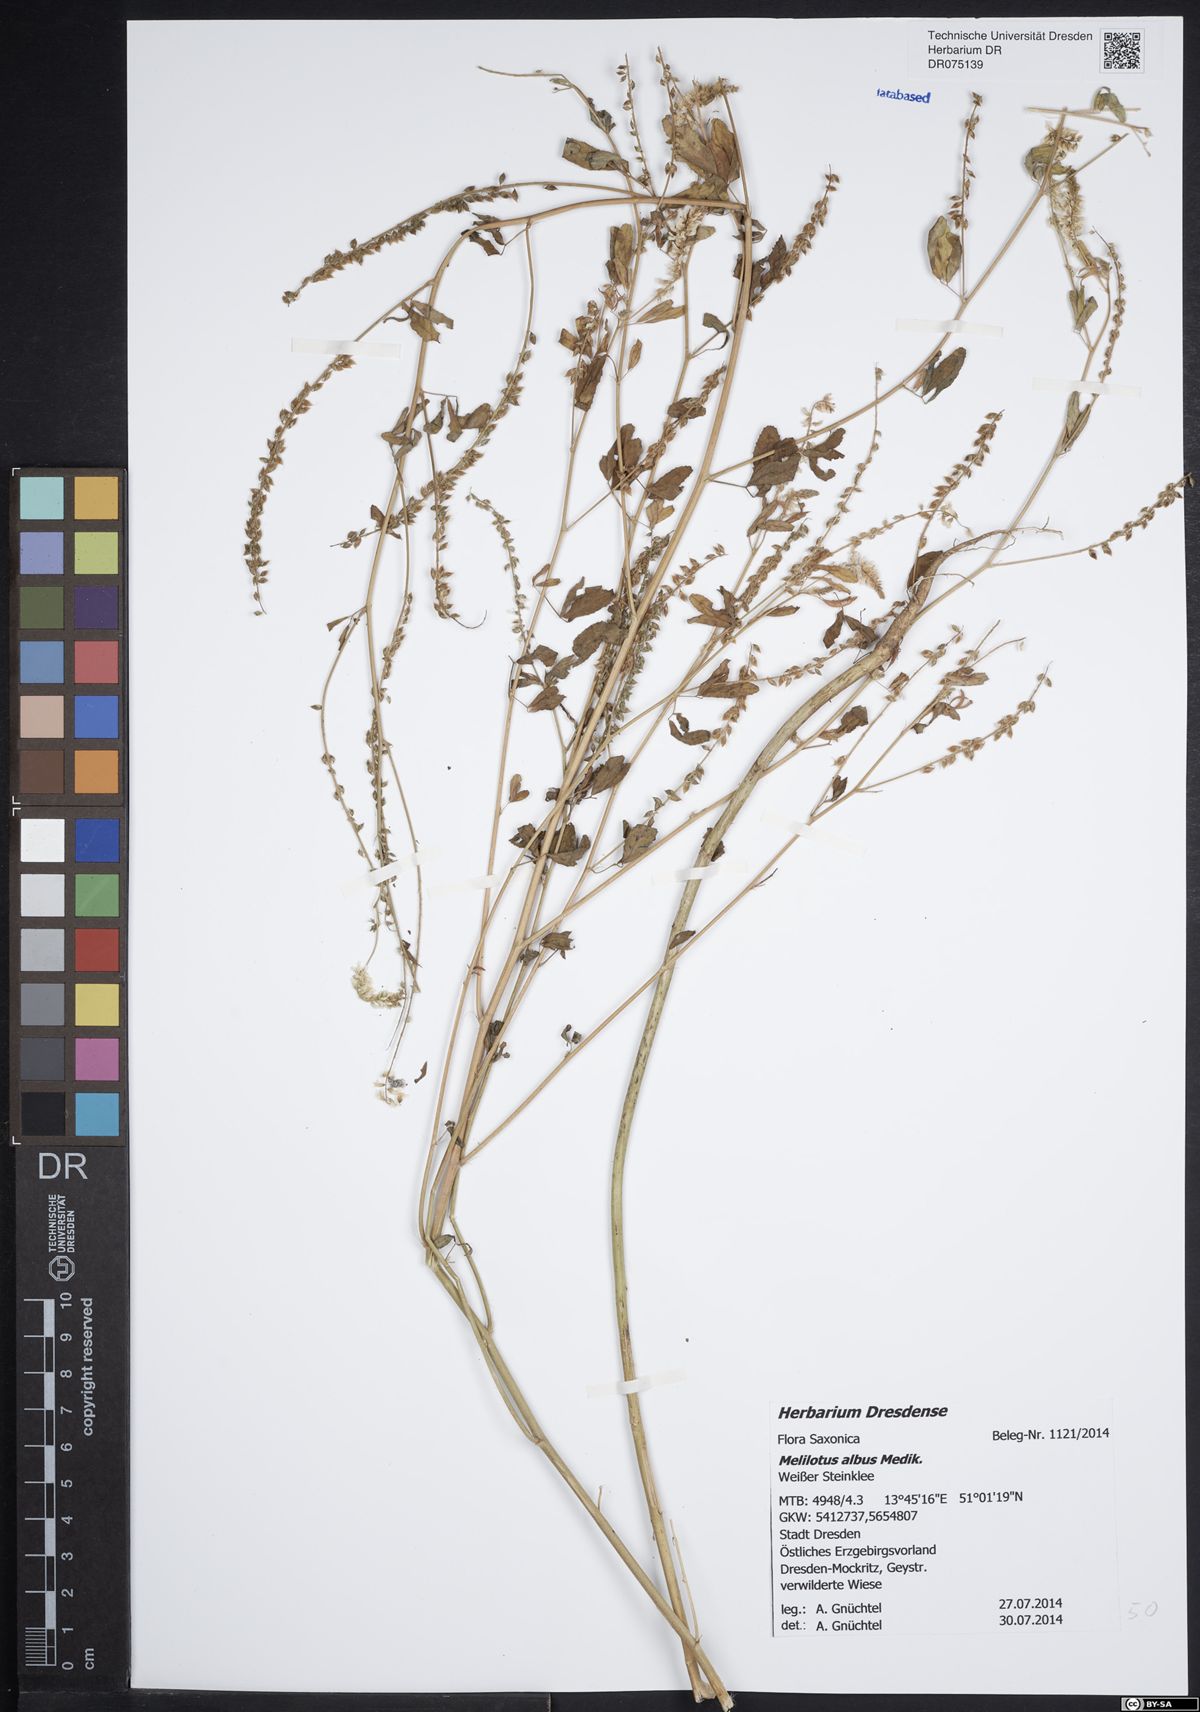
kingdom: Plantae
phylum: Tracheophyta
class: Magnoliopsida
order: Fabales
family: Fabaceae
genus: Melilotus
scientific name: Melilotus albus
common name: White melilot
